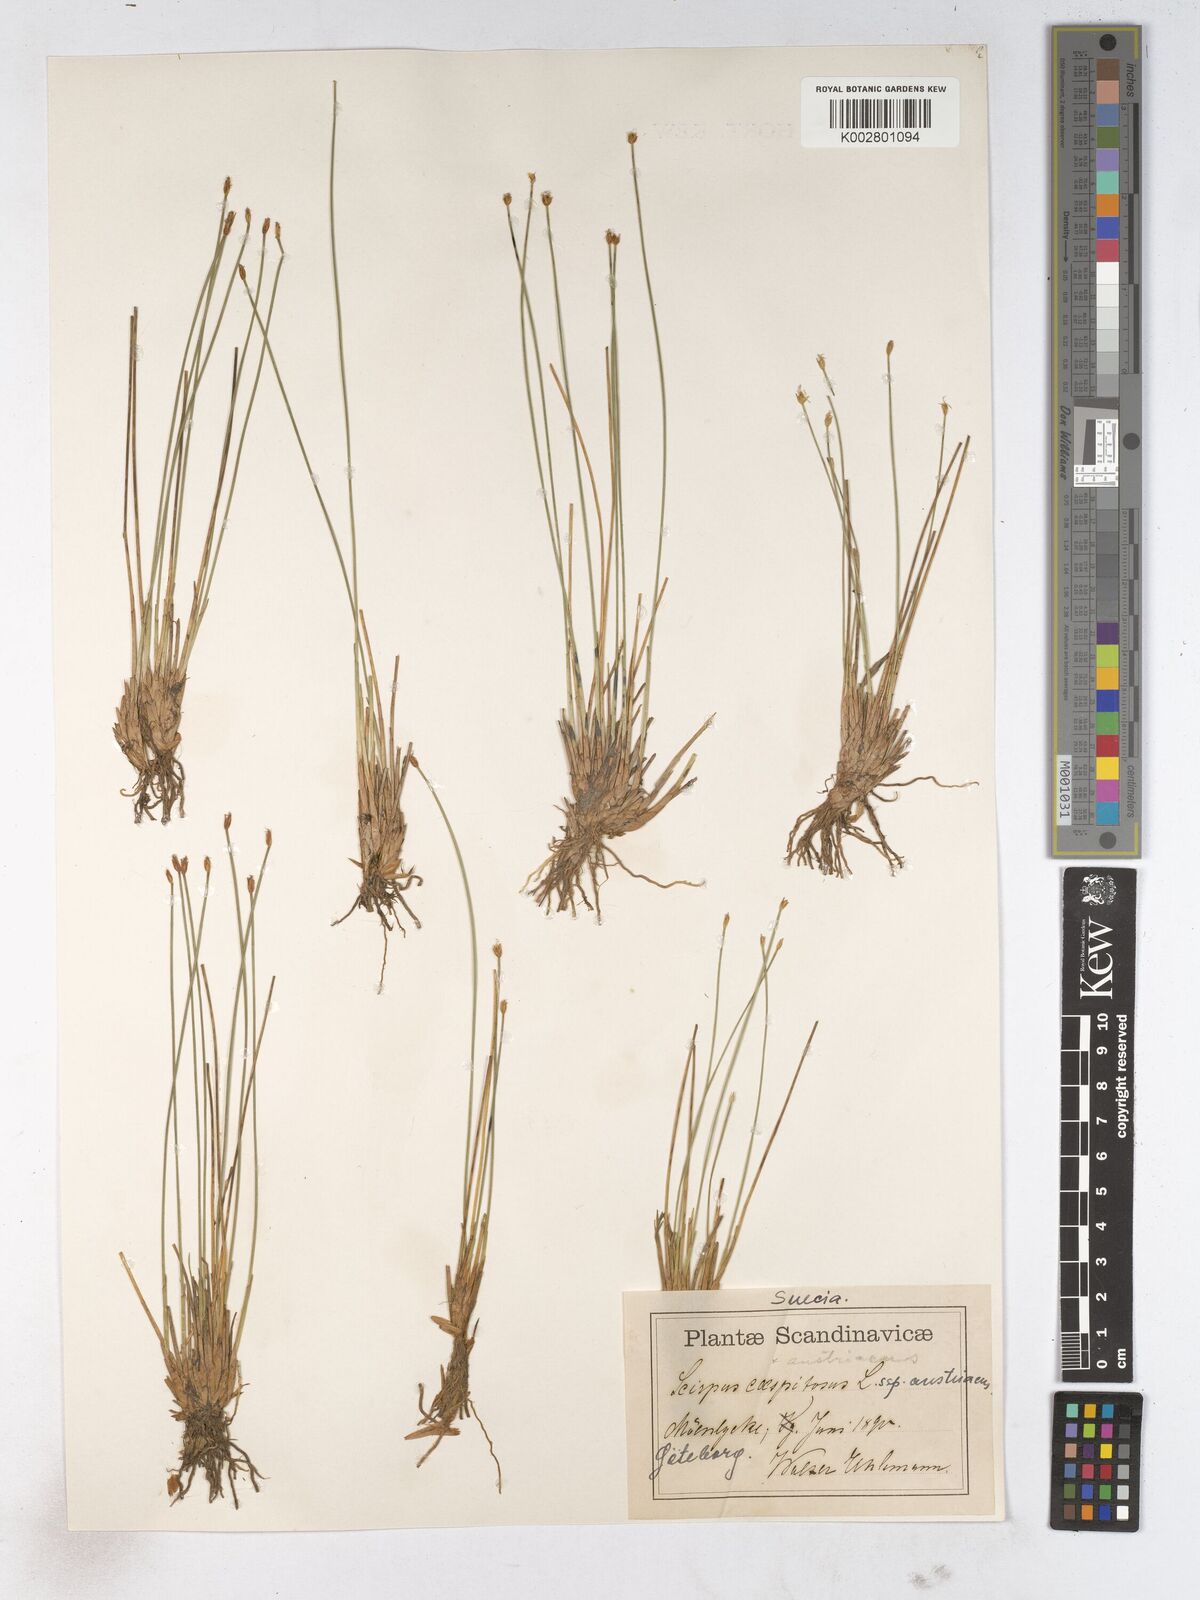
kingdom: Plantae
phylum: Tracheophyta
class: Liliopsida
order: Poales
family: Cyperaceae
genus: Trichophorum
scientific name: Trichophorum cespitosum
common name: Cespitose bulrush
